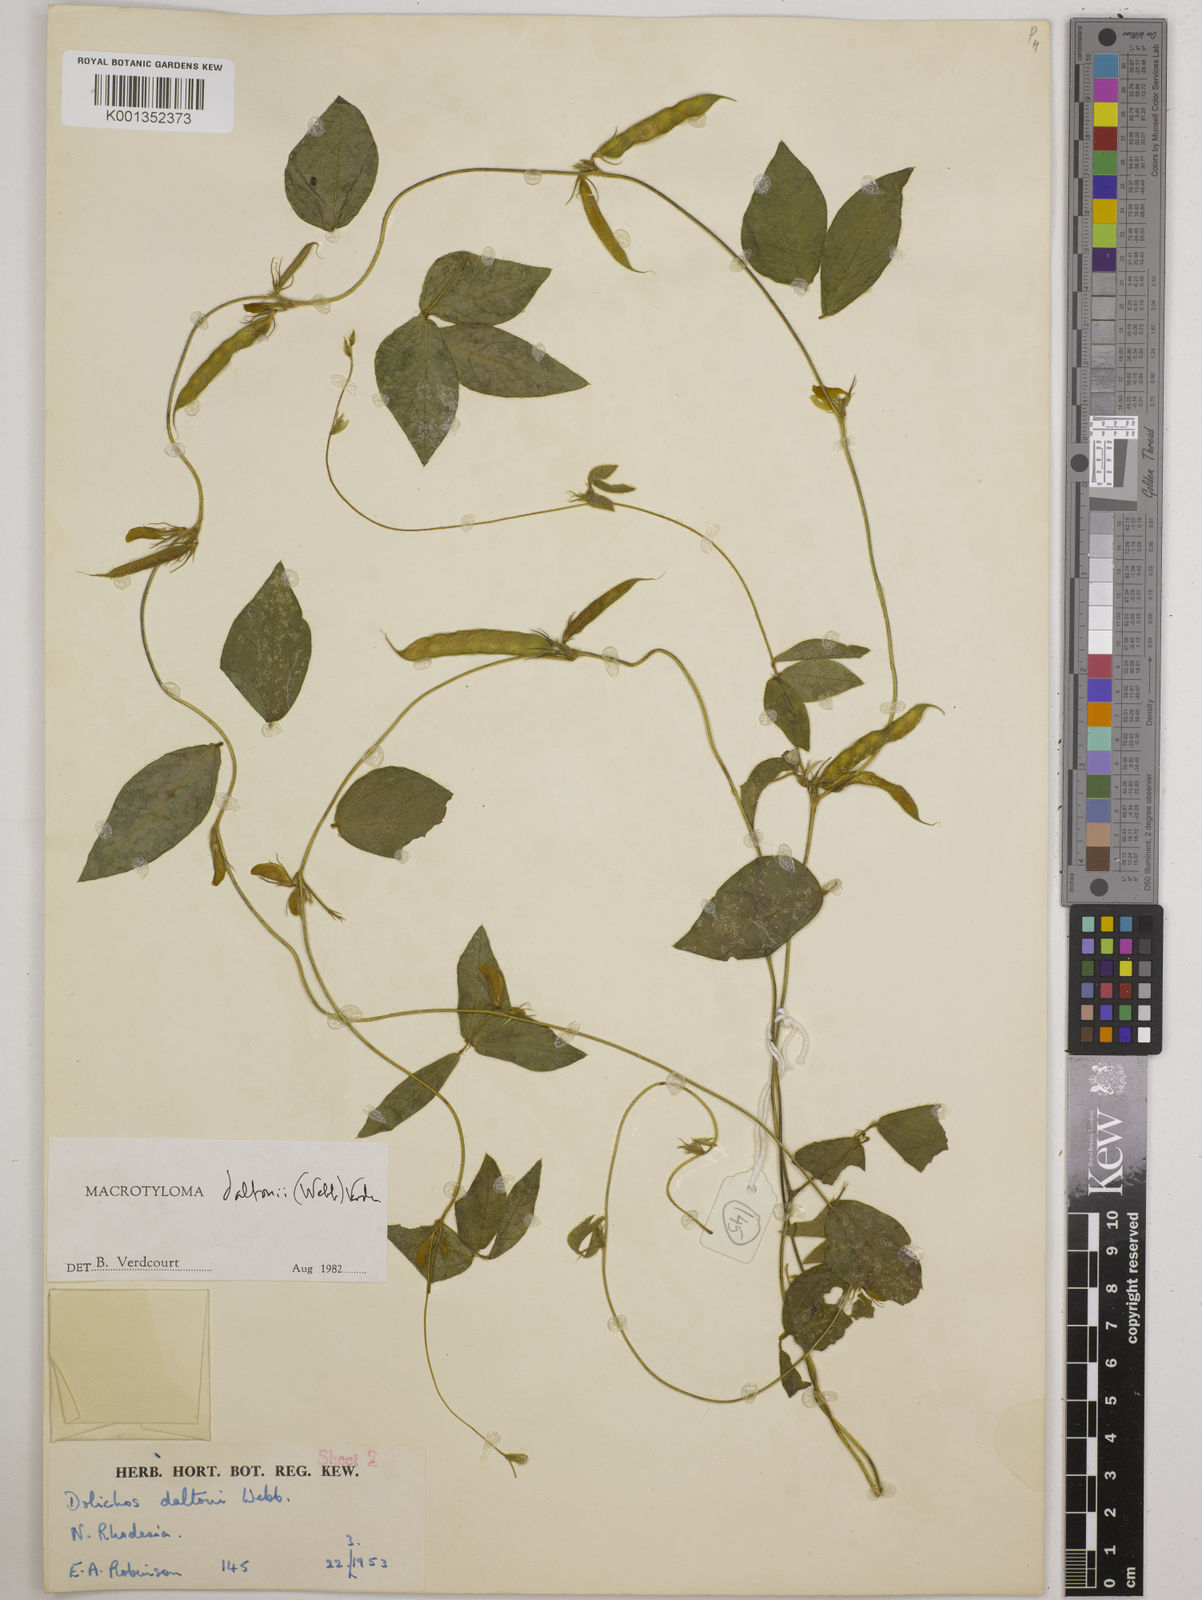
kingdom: Plantae
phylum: Tracheophyta
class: Magnoliopsida
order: Fabales
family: Fabaceae
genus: Macrotyloma
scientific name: Macrotyloma daltonii
